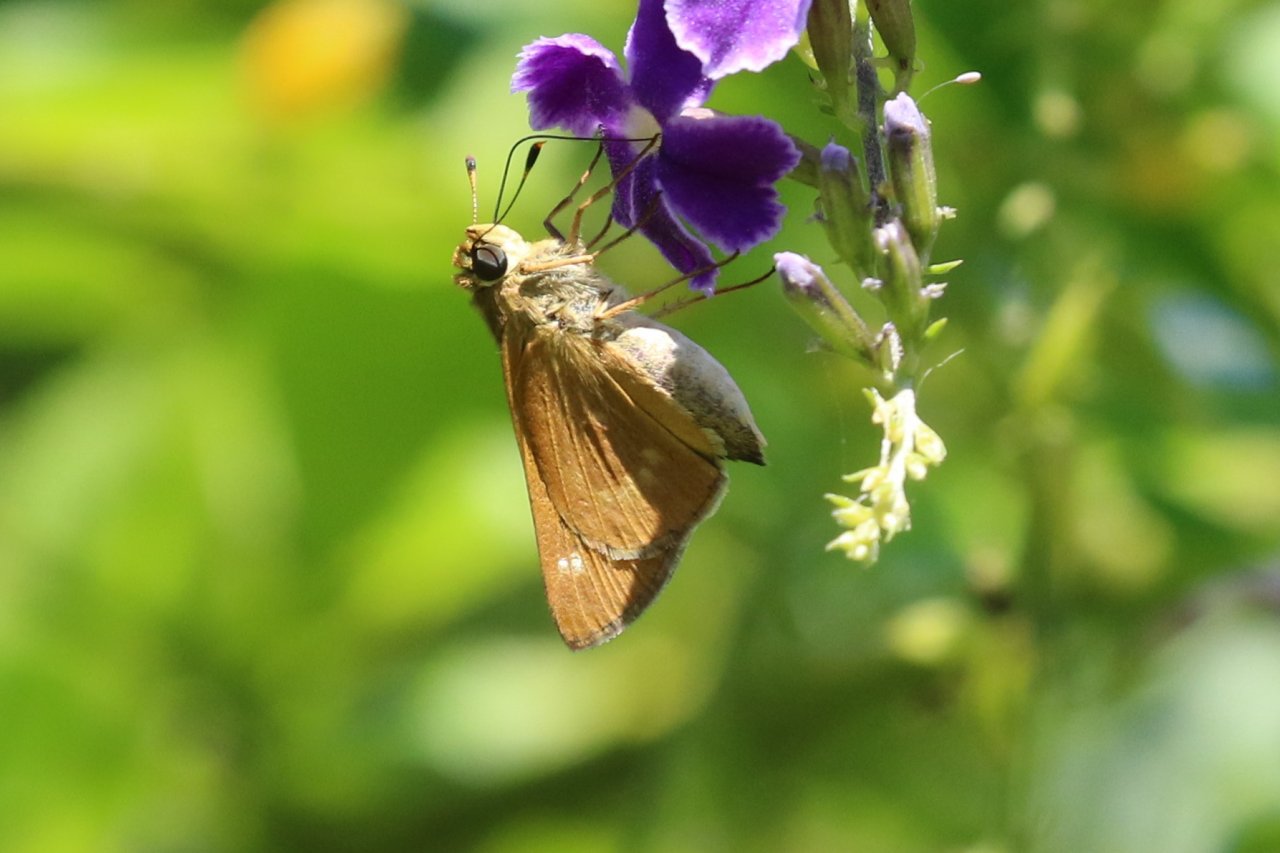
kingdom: Animalia
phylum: Arthropoda
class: Insecta
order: Lepidoptera
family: Hesperiidae
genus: Mellana
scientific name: Mellana eulogius
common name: Common Mellana
